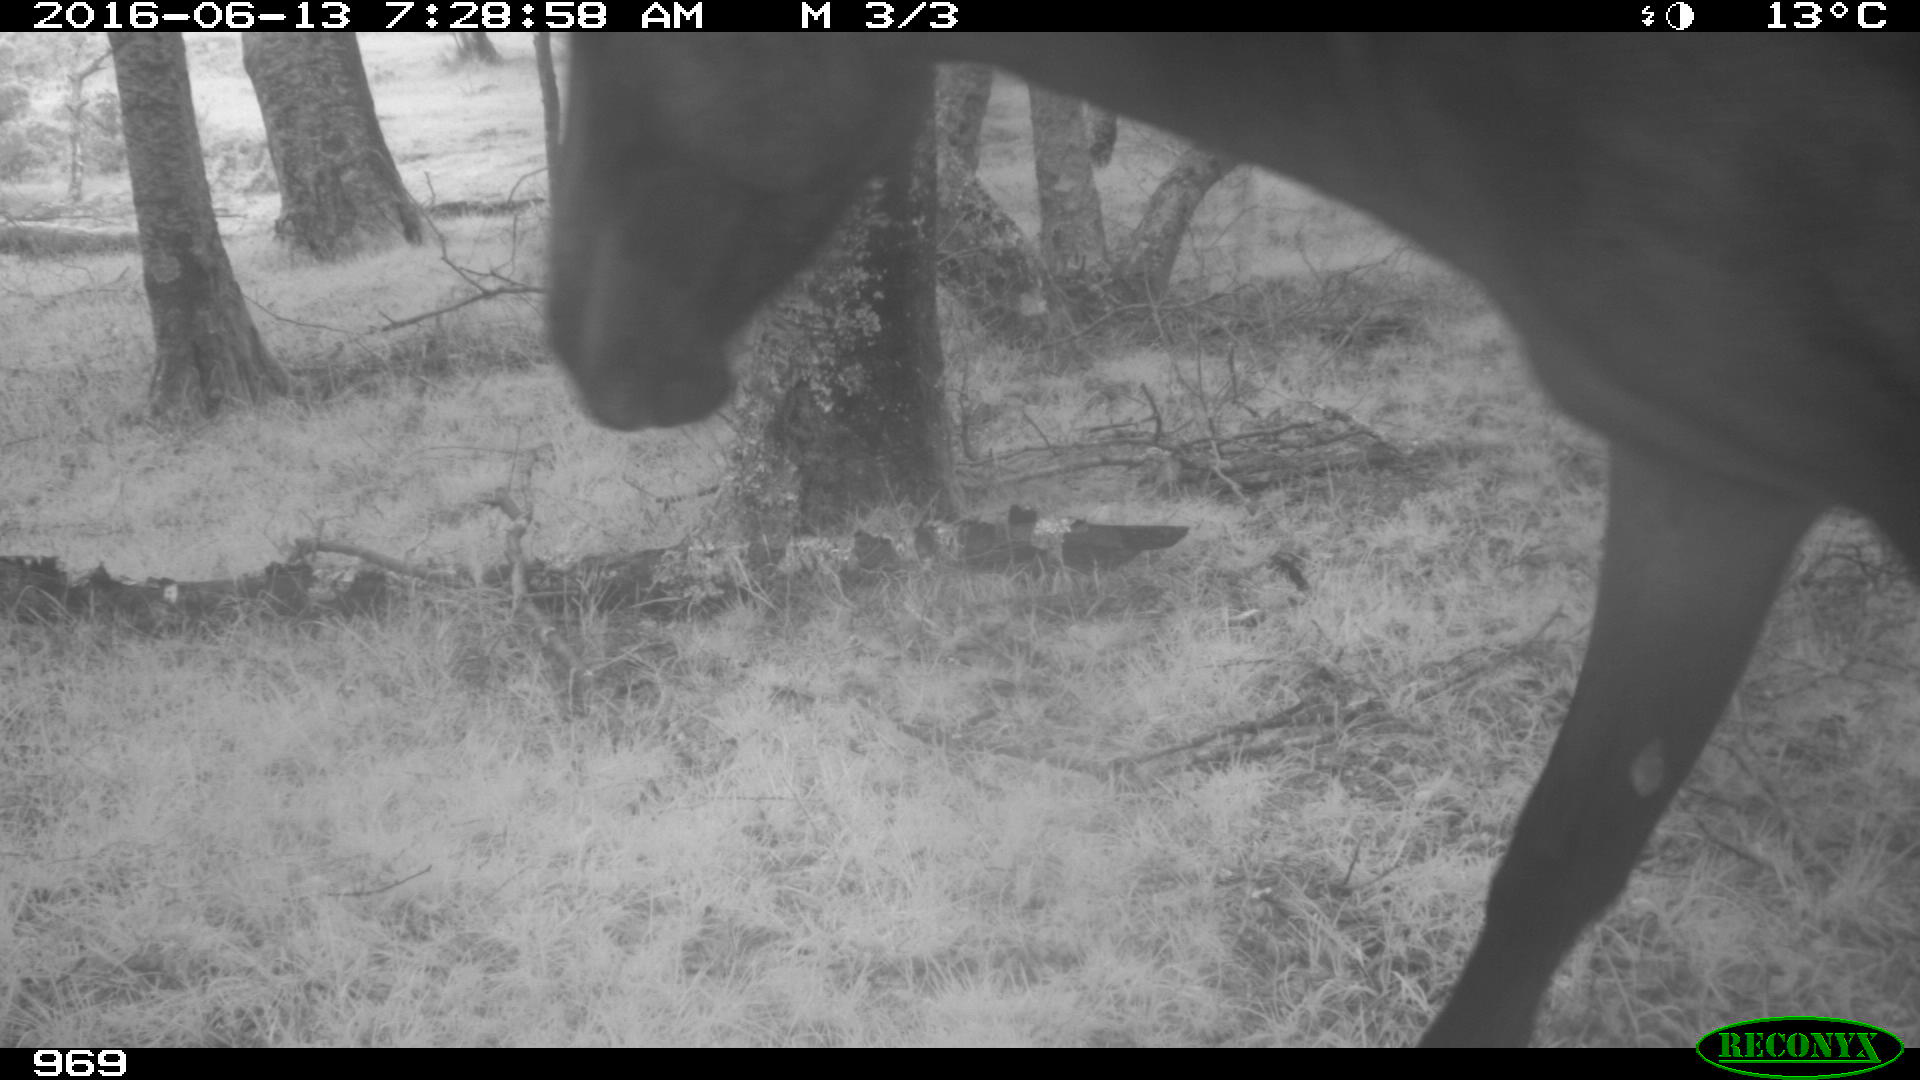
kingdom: Animalia
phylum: Chordata
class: Mammalia
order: Perissodactyla
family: Equidae
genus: Equus
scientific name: Equus caballus
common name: Horse
